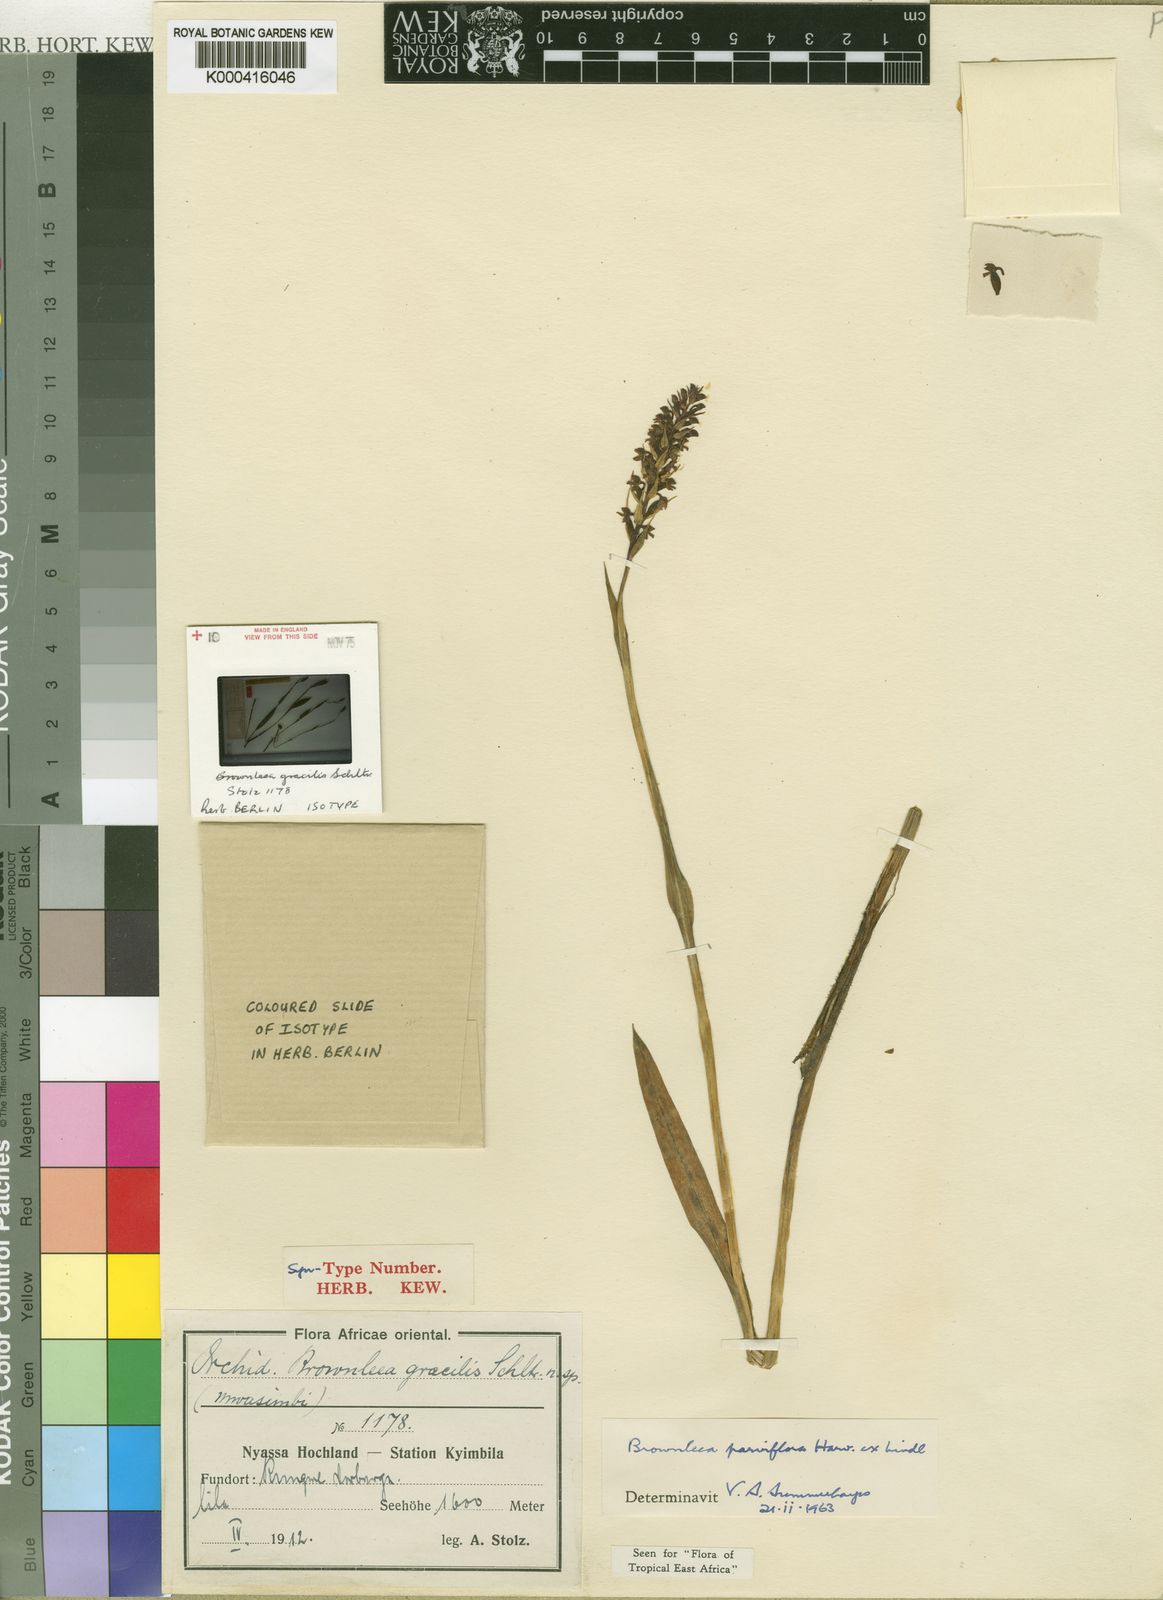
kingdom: Plantae
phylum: Tracheophyta
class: Liliopsida
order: Asparagales
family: Orchidaceae
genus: Brownleea
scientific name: Brownleea parviflora
